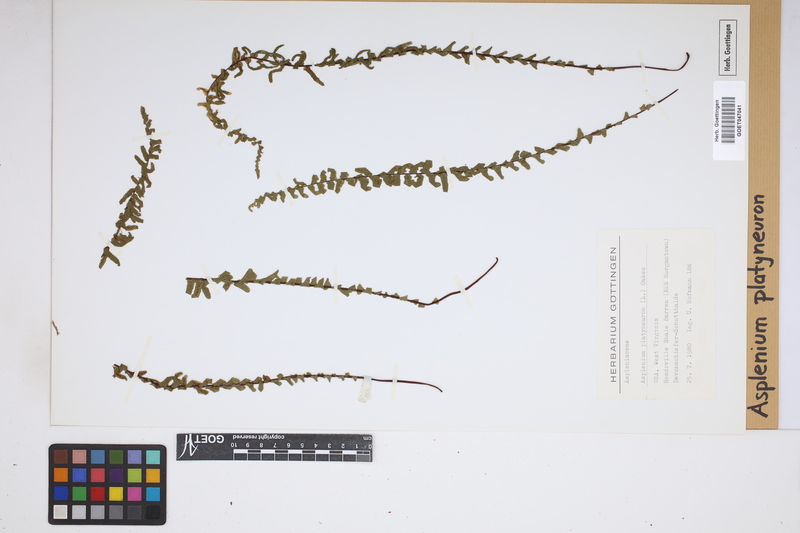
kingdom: Plantae
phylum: Tracheophyta
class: Polypodiopsida
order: Polypodiales
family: Aspleniaceae
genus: Asplenium
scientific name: Asplenium platyneuron
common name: Ebony spleenwort
